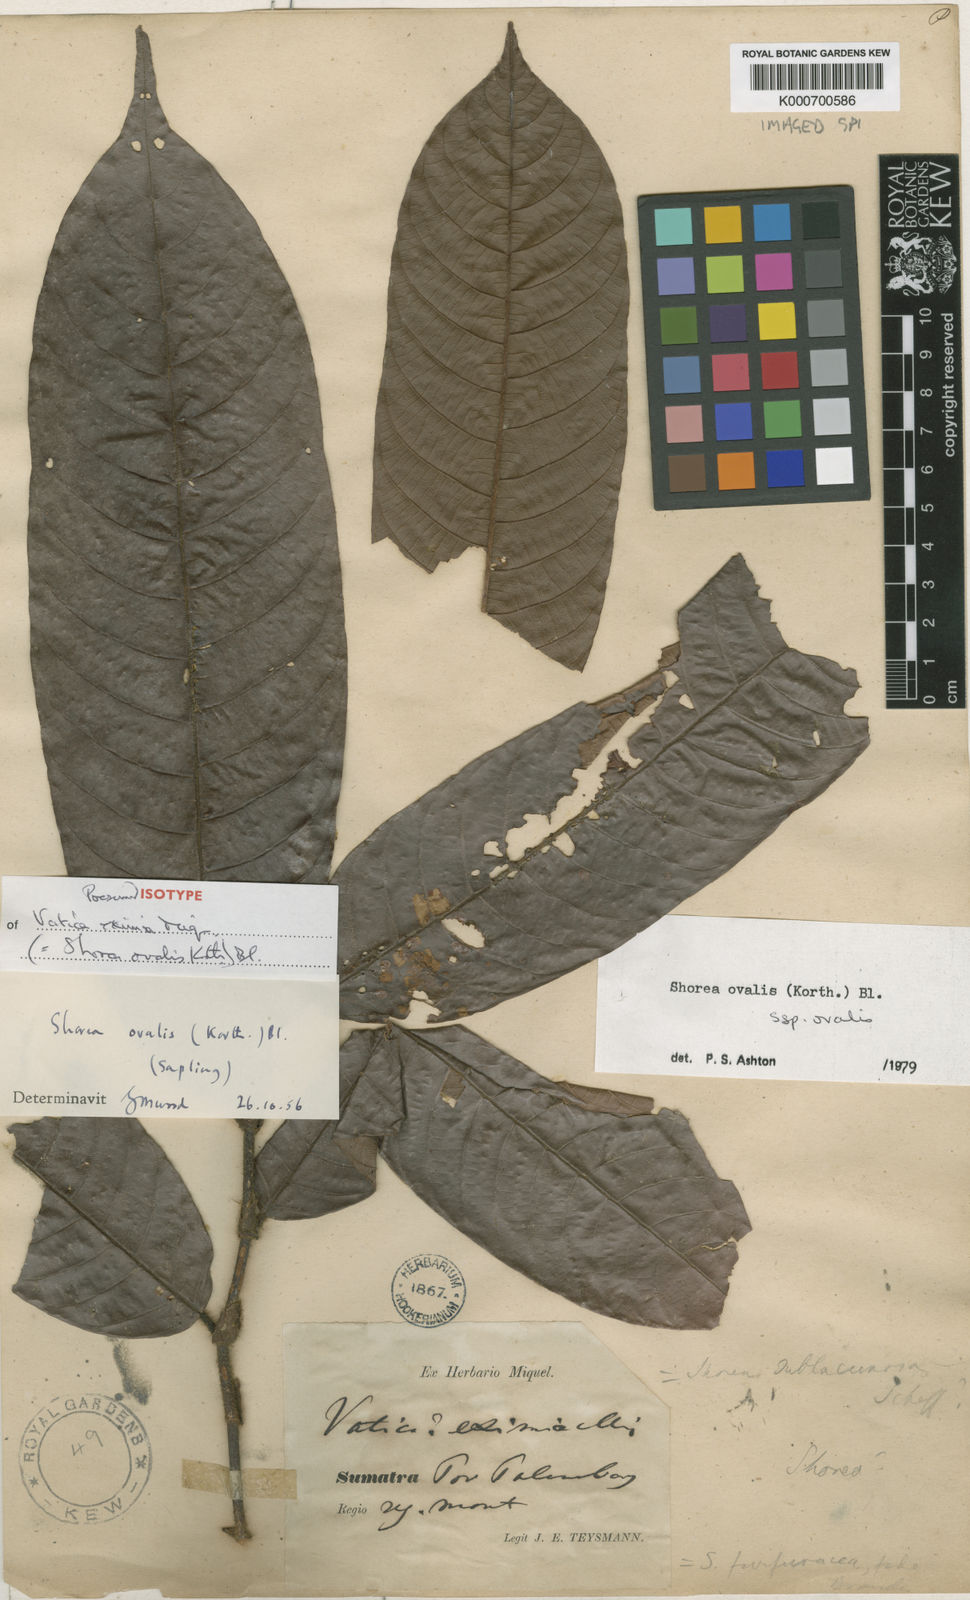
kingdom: Plantae
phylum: Tracheophyta
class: Magnoliopsida
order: Malvales
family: Dipterocarpaceae
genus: Shorea
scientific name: Shorea ovalis
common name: Light red meranti
